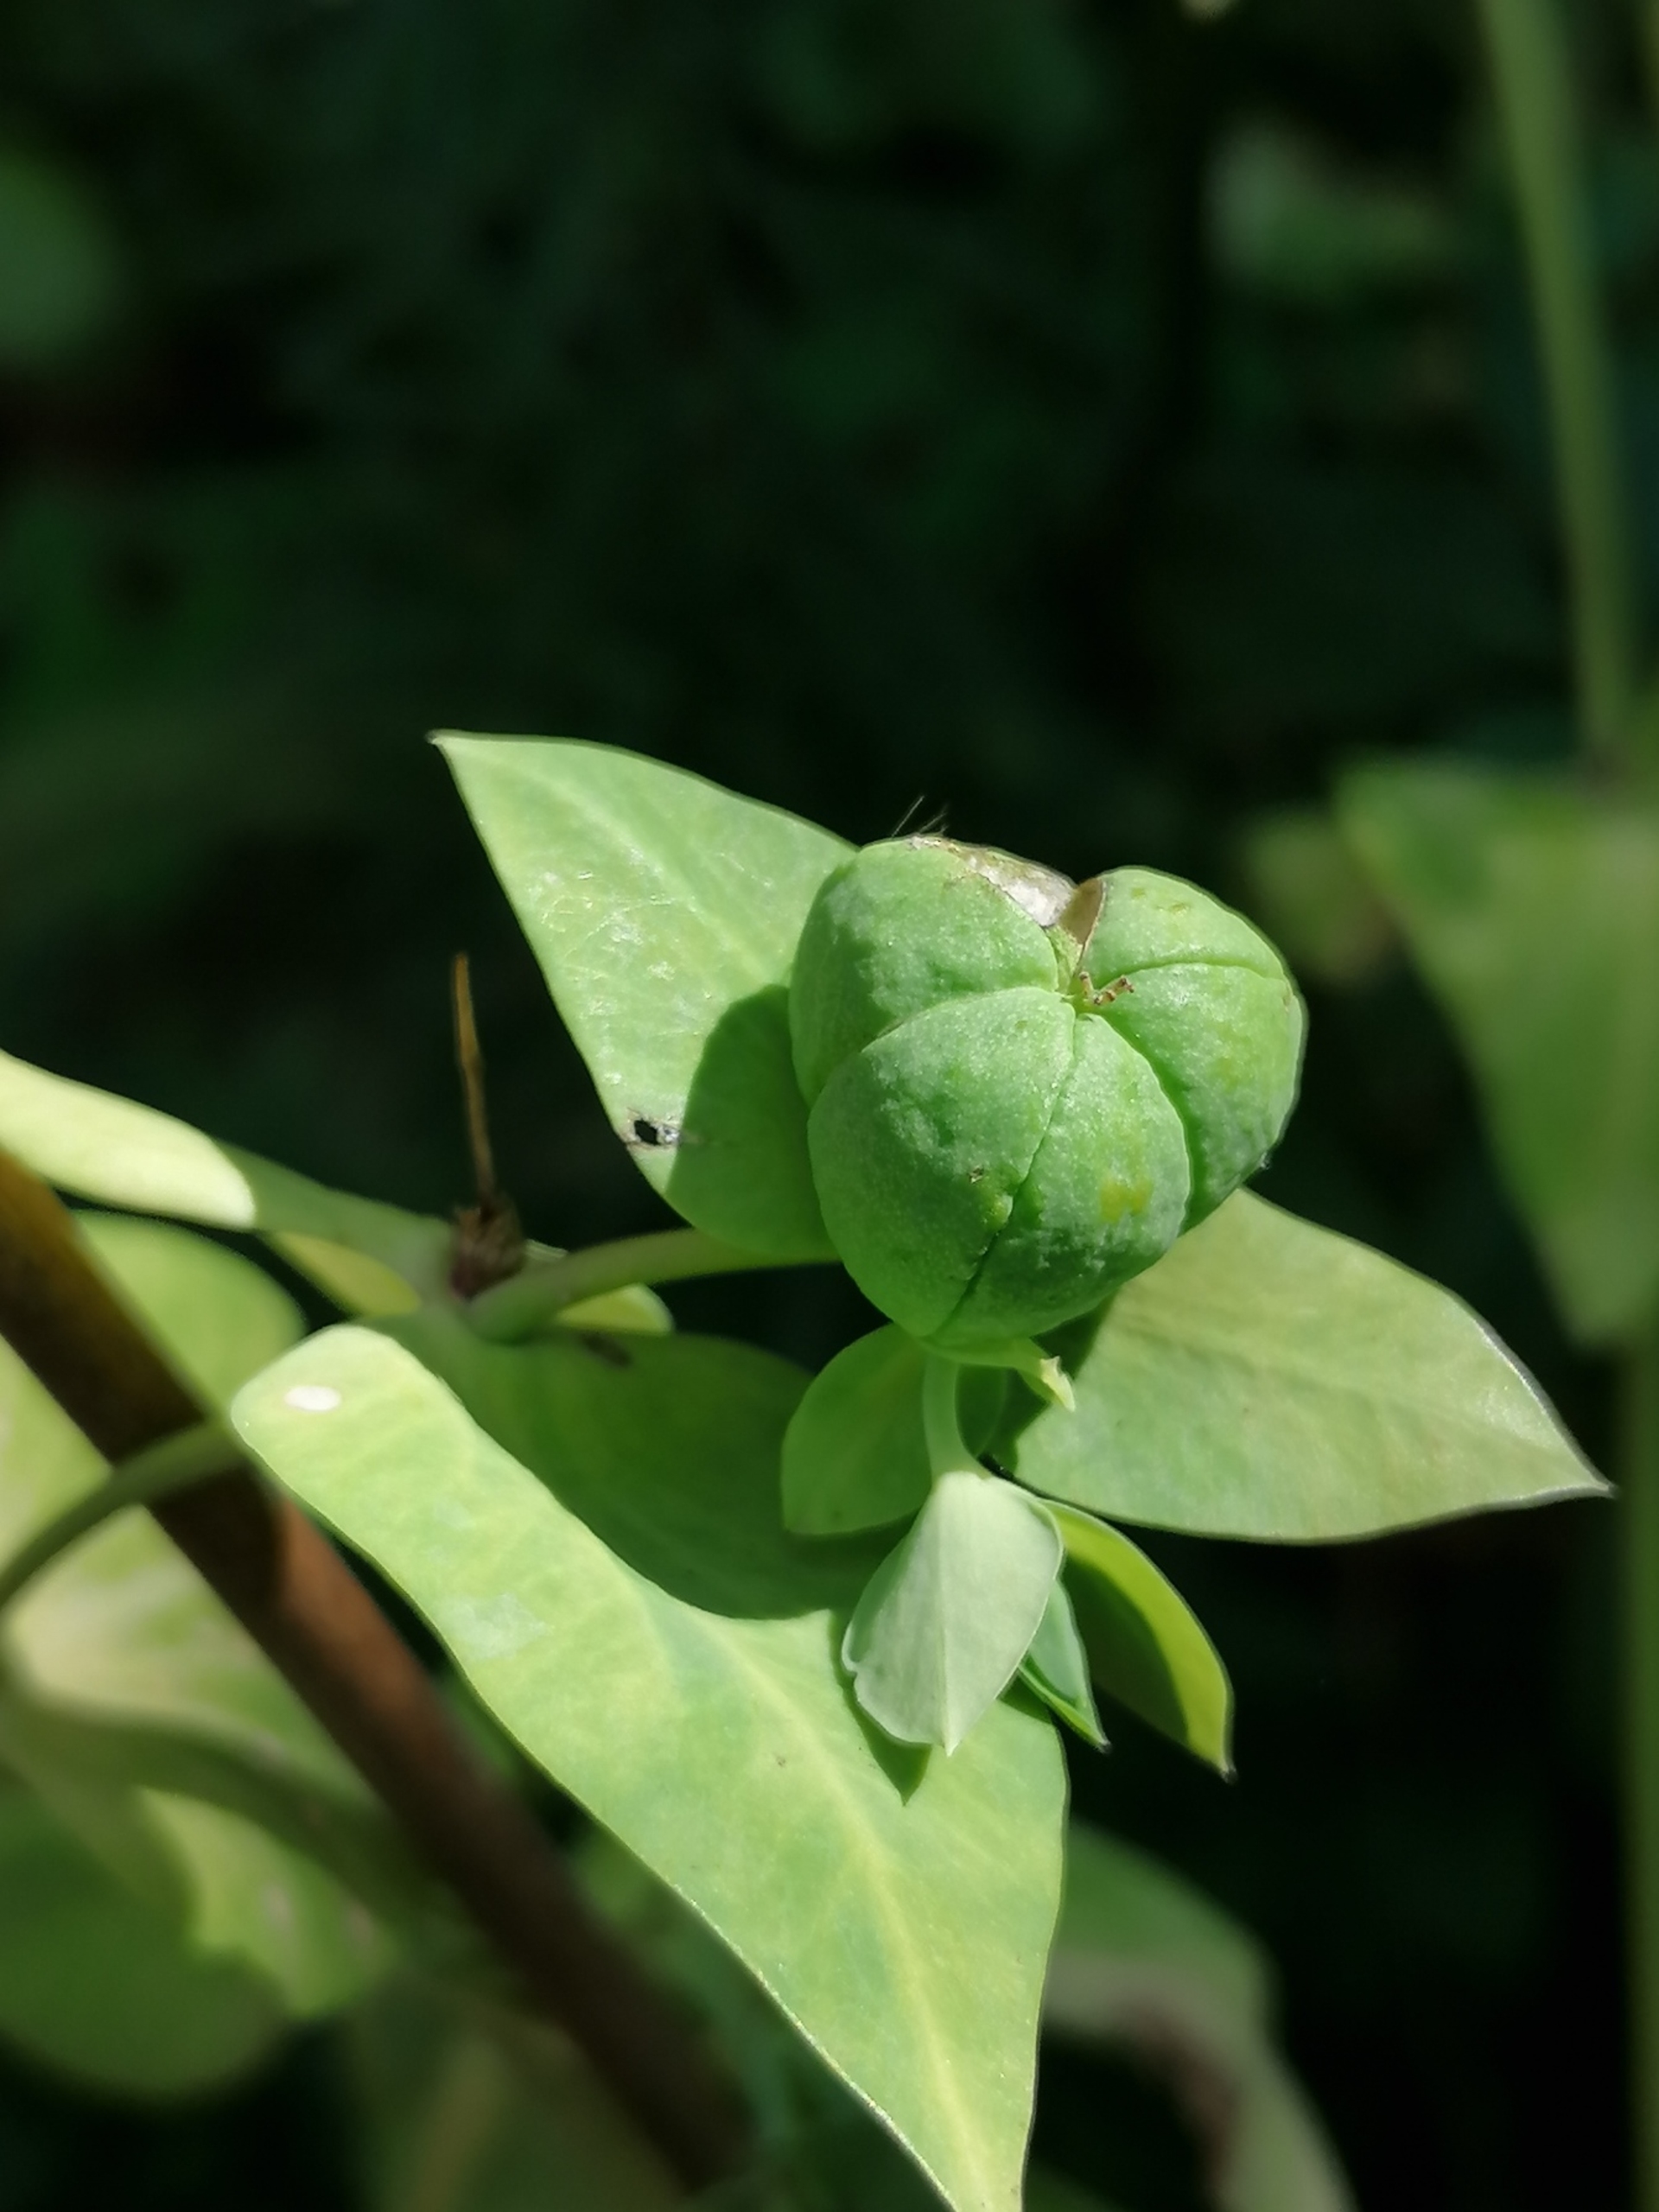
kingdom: Plantae
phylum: Tracheophyta
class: Magnoliopsida
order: Malpighiales
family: Euphorbiaceae
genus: Euphorbia
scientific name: Euphorbia lathyris
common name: Kors-vortemælk
